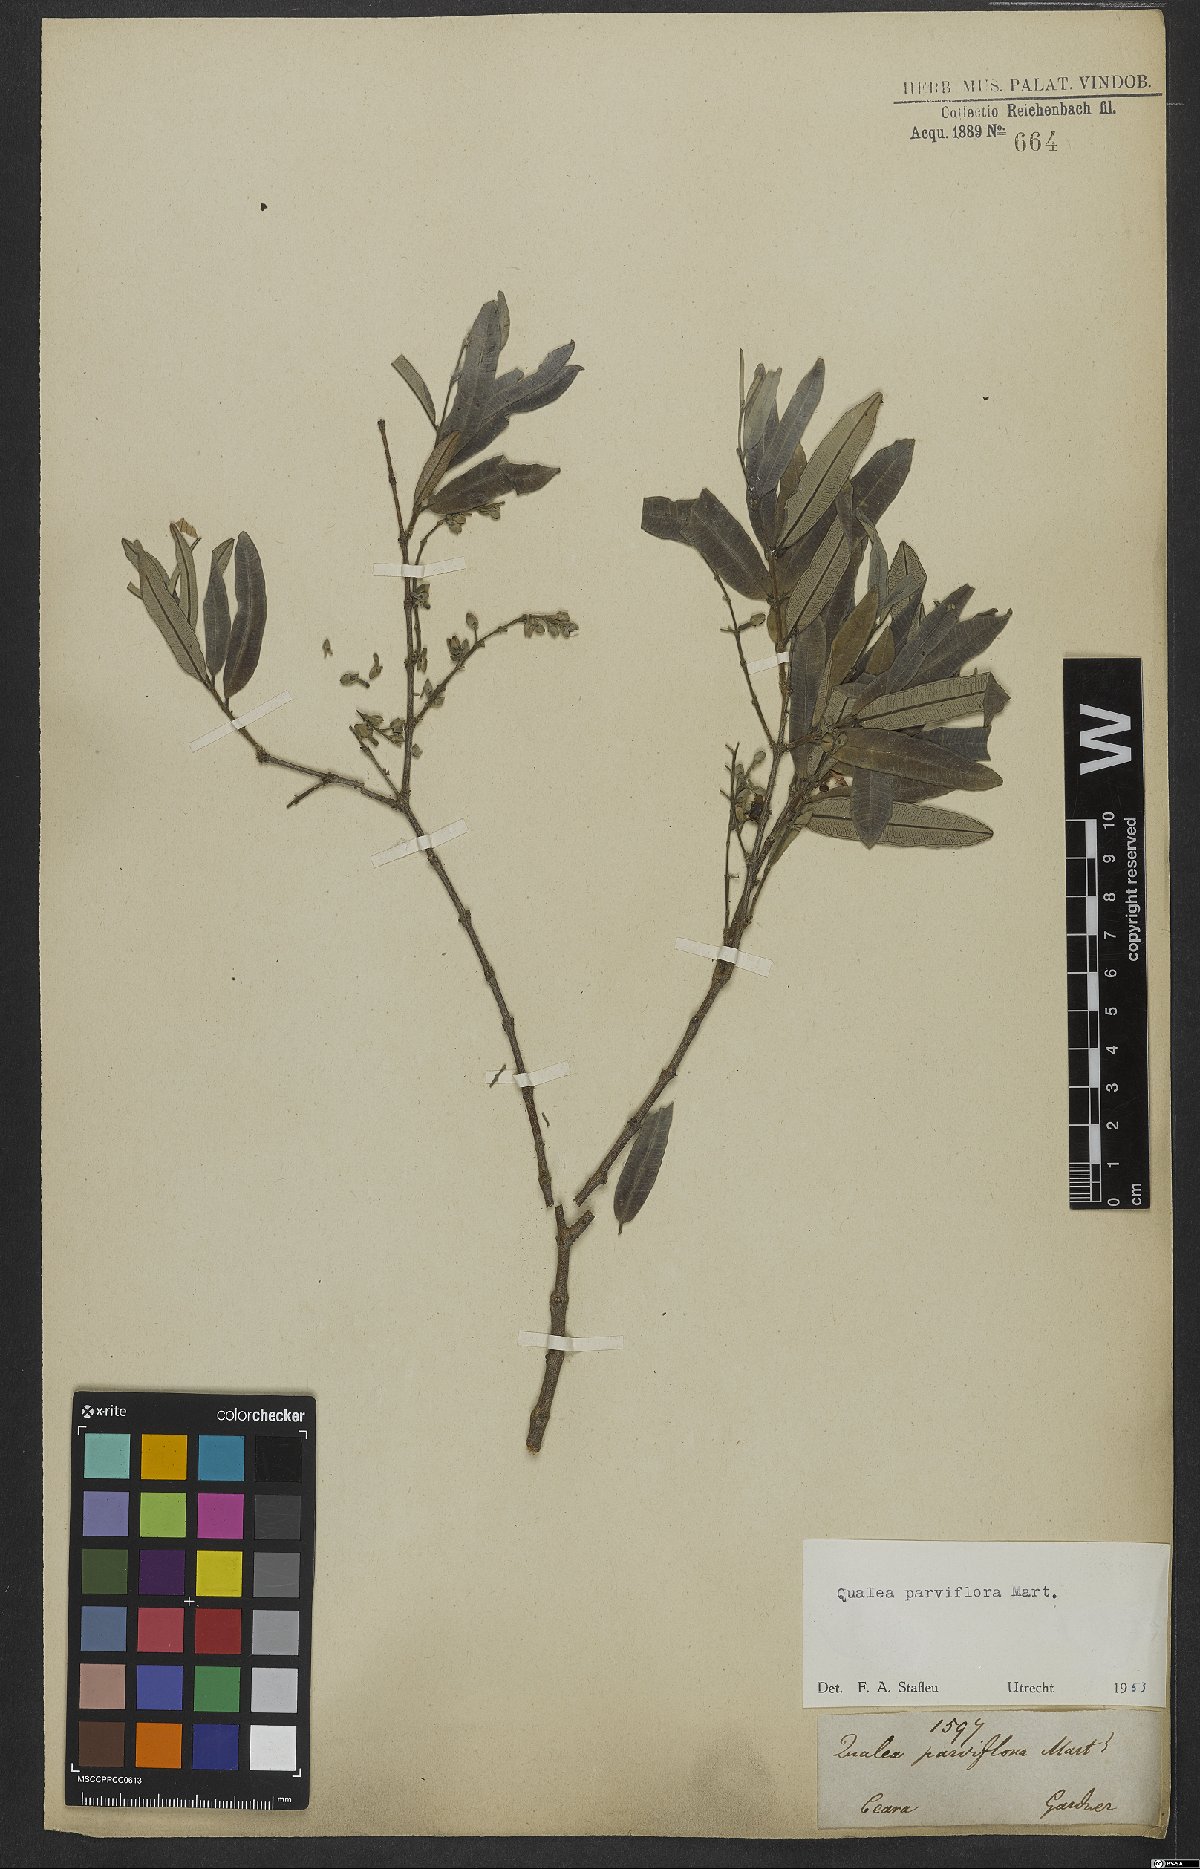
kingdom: Plantae
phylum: Tracheophyta
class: Magnoliopsida
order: Myrtales
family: Vochysiaceae
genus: Qualea
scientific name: Qualea parviflora
